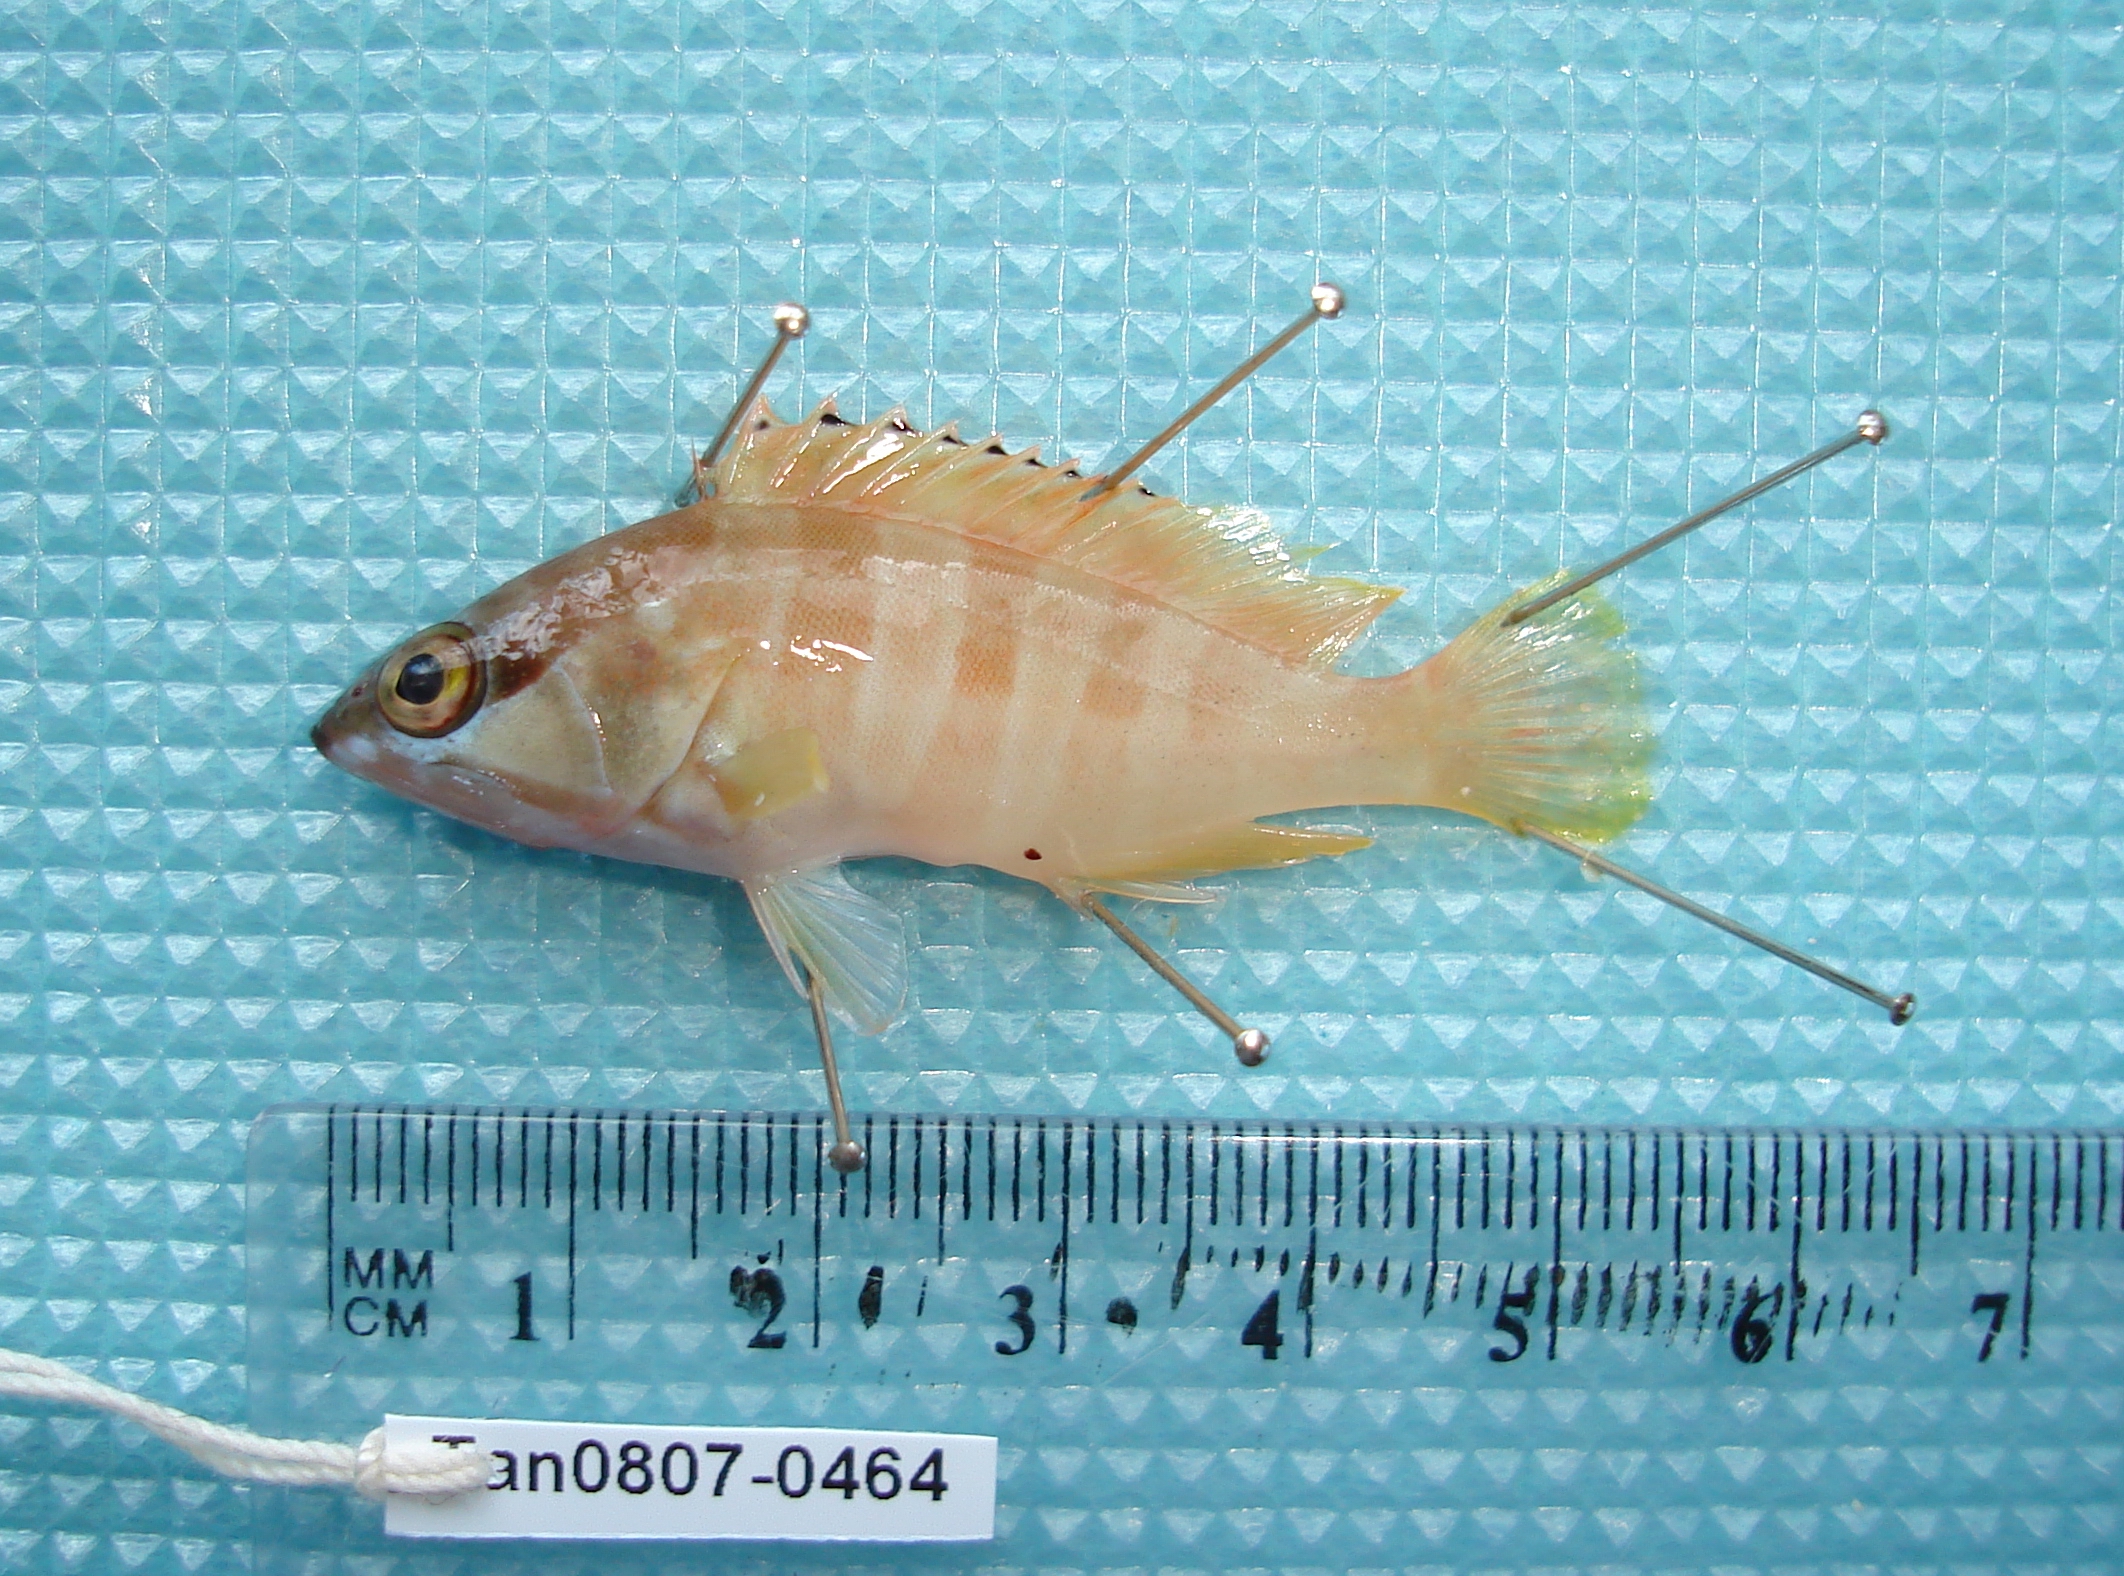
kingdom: Animalia
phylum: Chordata
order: Perciformes
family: Serranidae
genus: Epinephelus
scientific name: Epinephelus fasciatus
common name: Blacktip grouper
